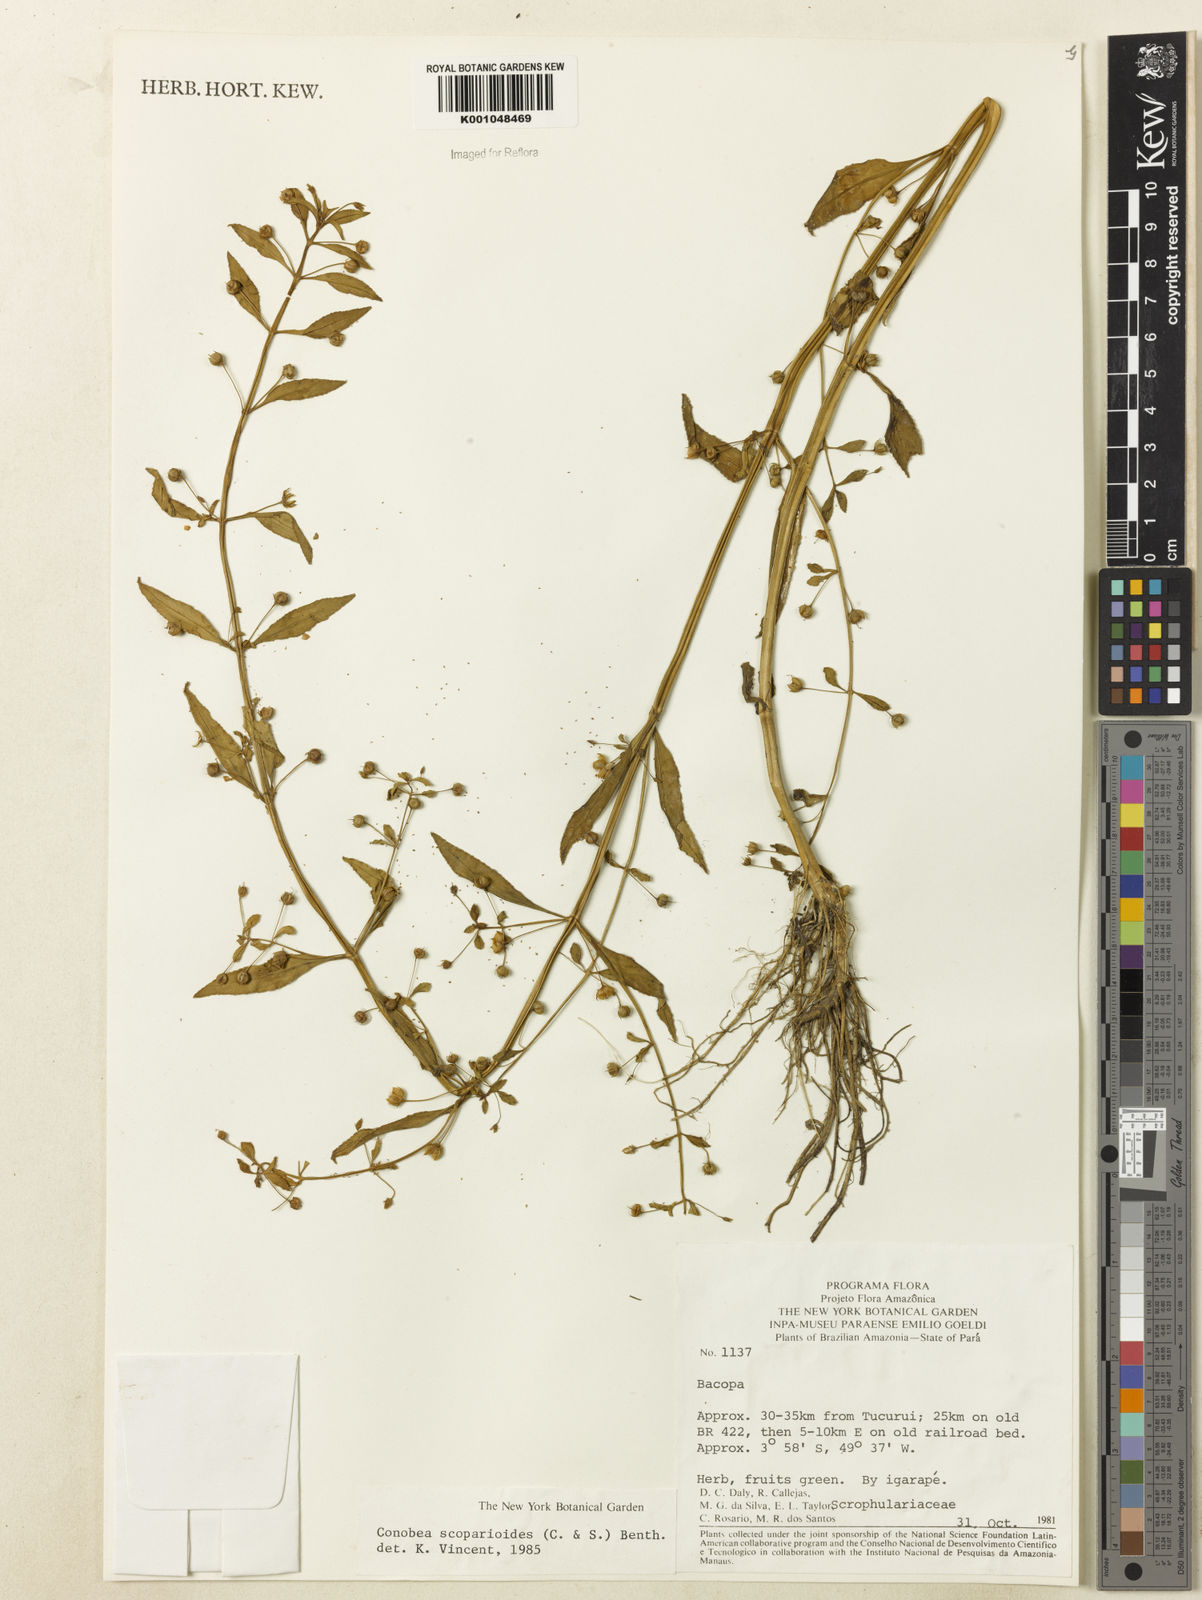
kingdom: Plantae
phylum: Tracheophyta
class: Magnoliopsida
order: Lamiales
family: Plantaginaceae
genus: Conobea
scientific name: Conobea scoparioides
